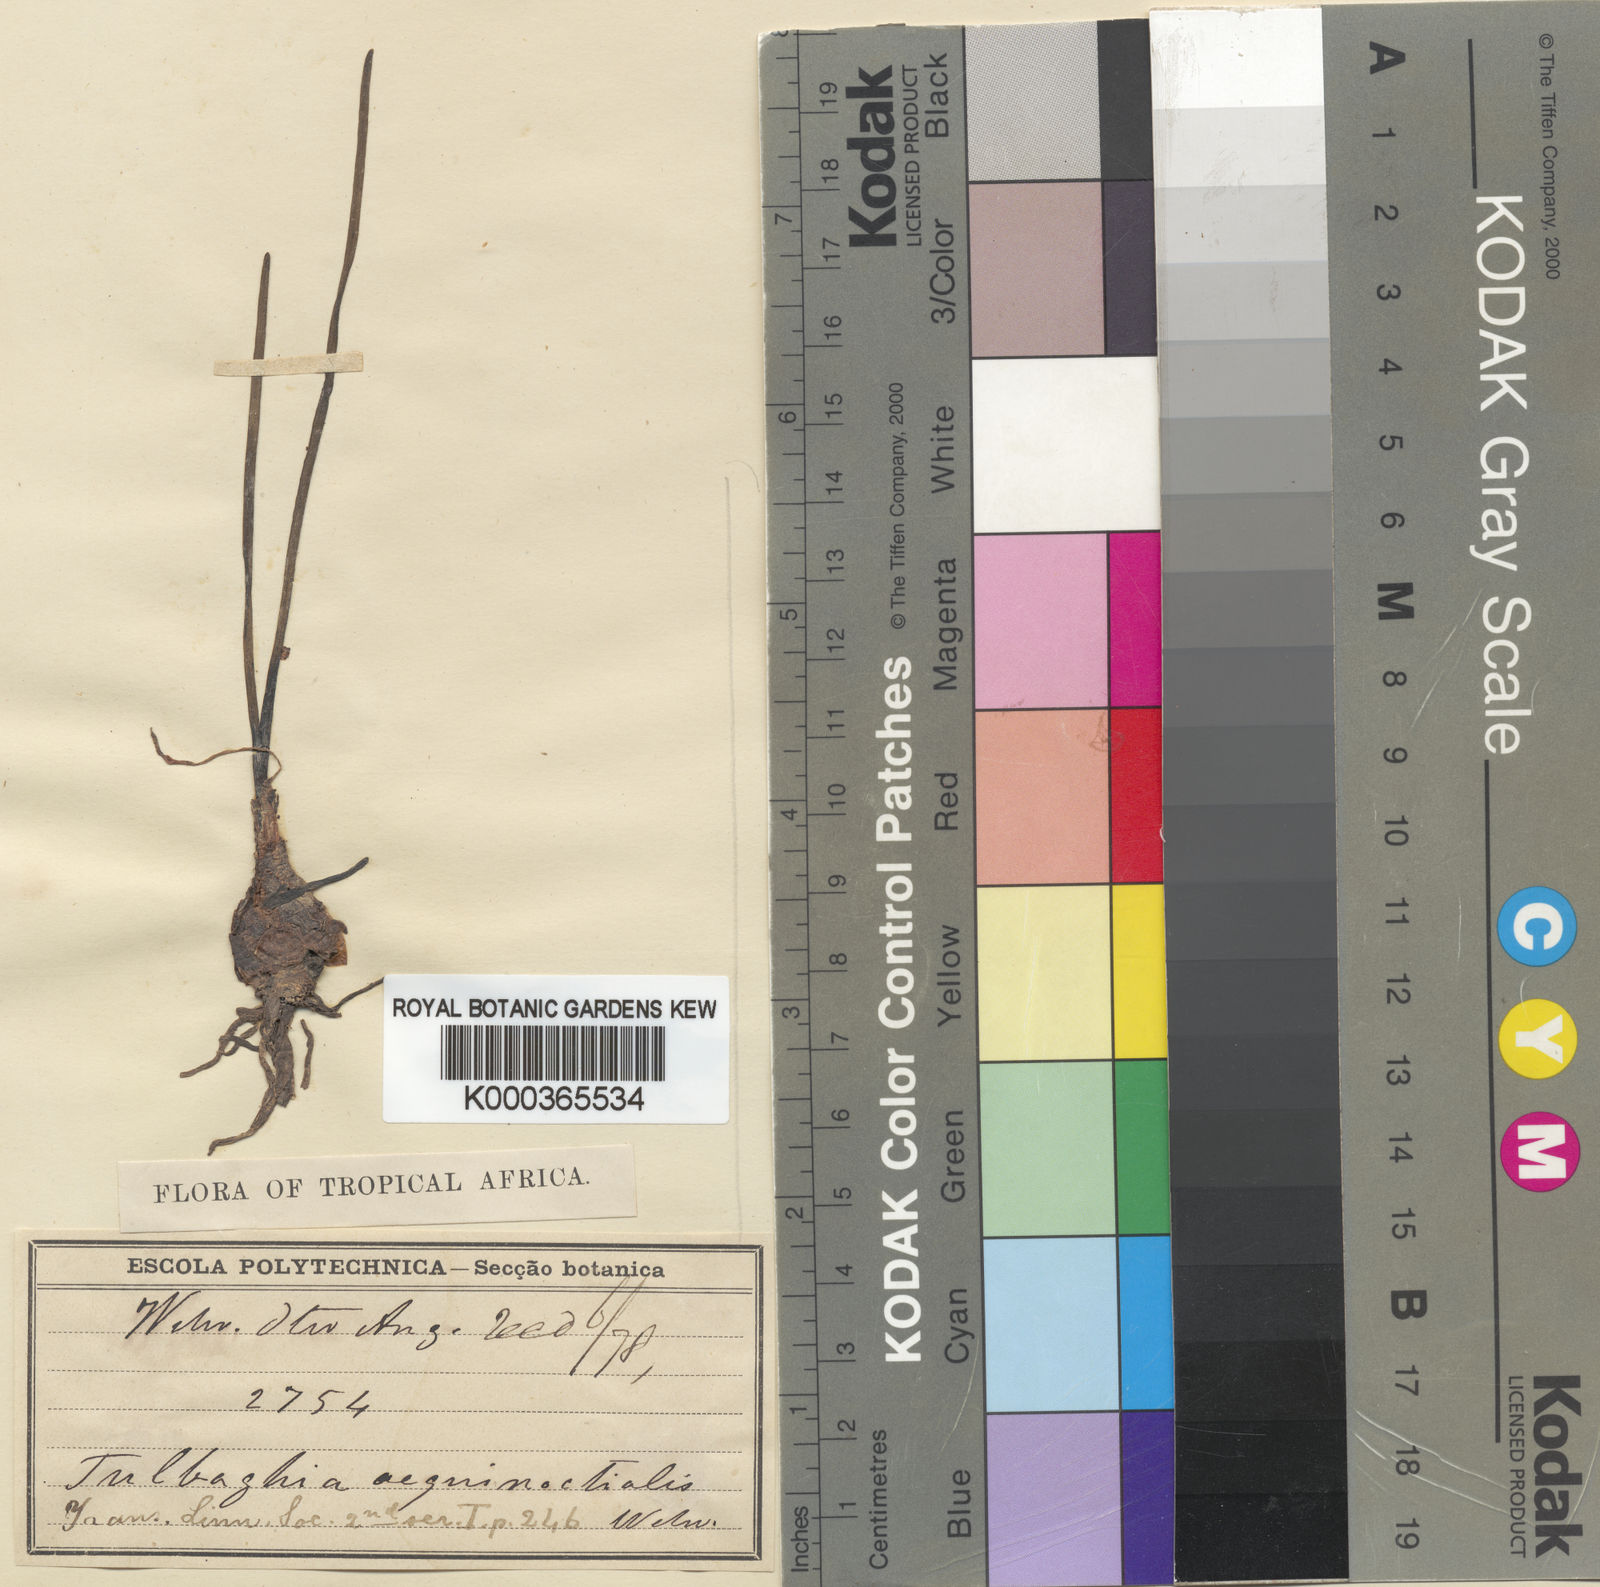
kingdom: Plantae
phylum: Tracheophyta
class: Liliopsida
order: Asparagales
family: Amaryllidaceae
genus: Tulbaghia
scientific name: Tulbaghia aequinoctialis
